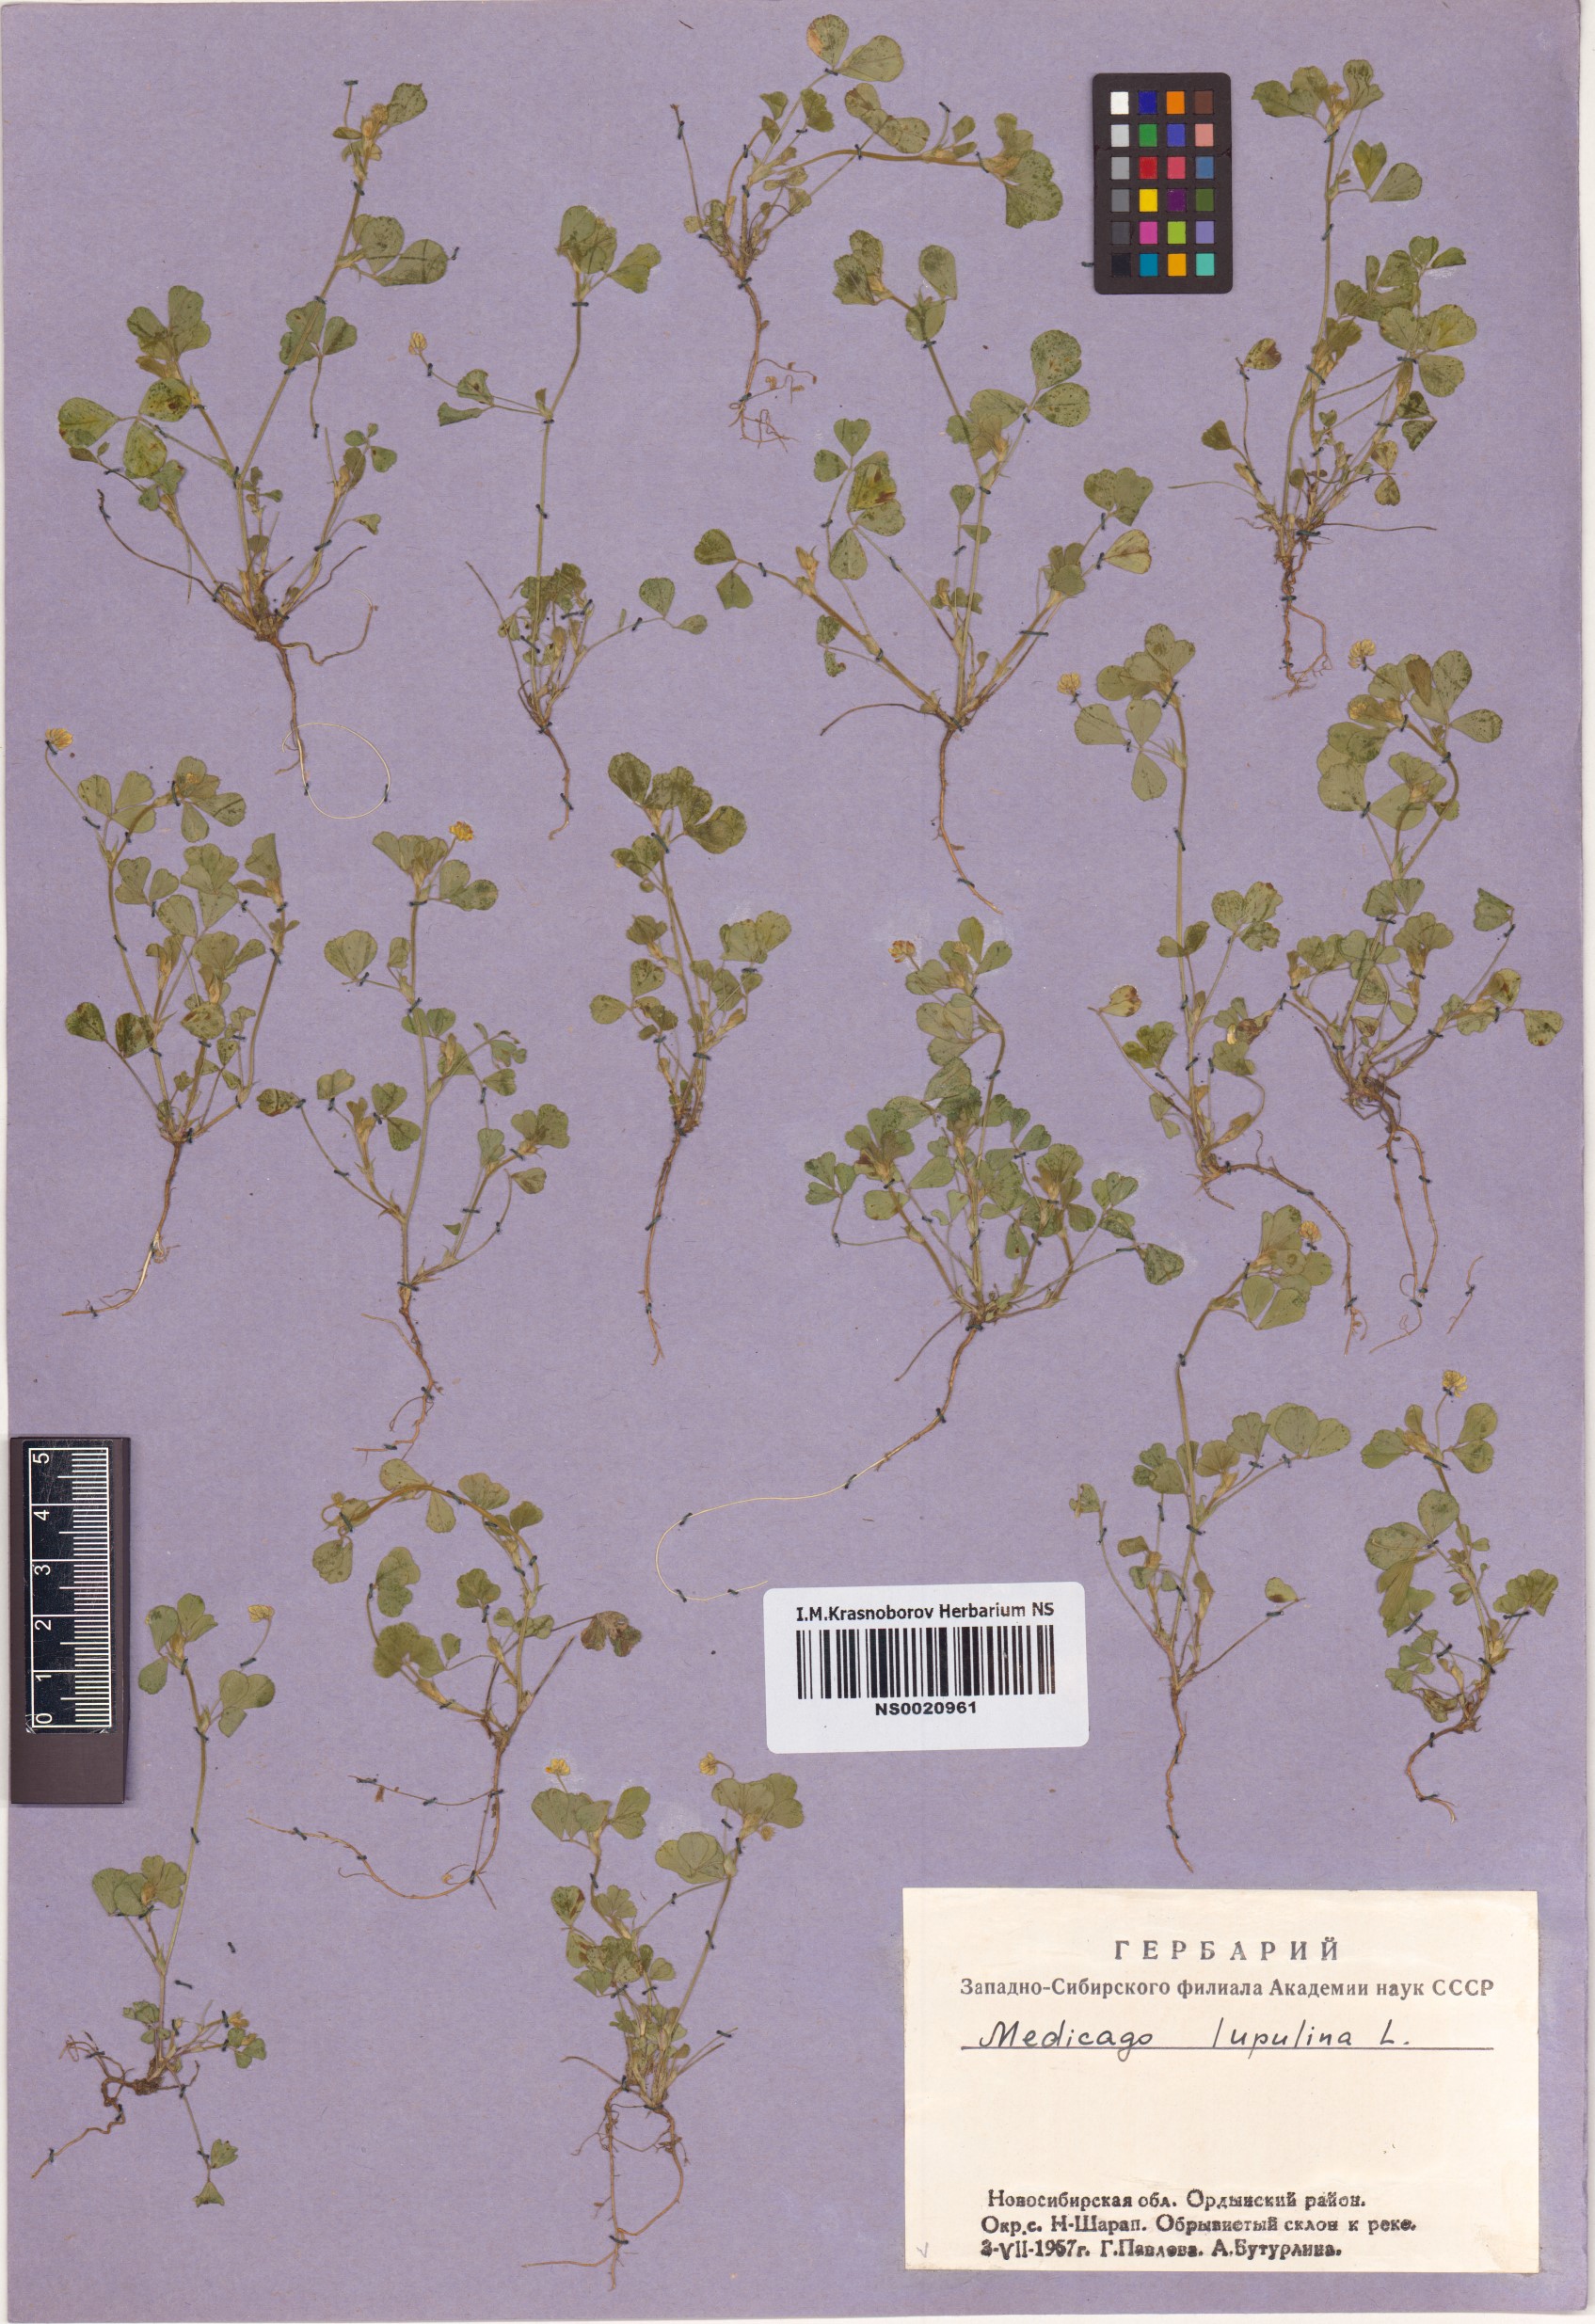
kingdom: Plantae
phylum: Tracheophyta
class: Magnoliopsida
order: Fabales
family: Fabaceae
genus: Medicago
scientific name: Medicago lupulina
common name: Black medick
